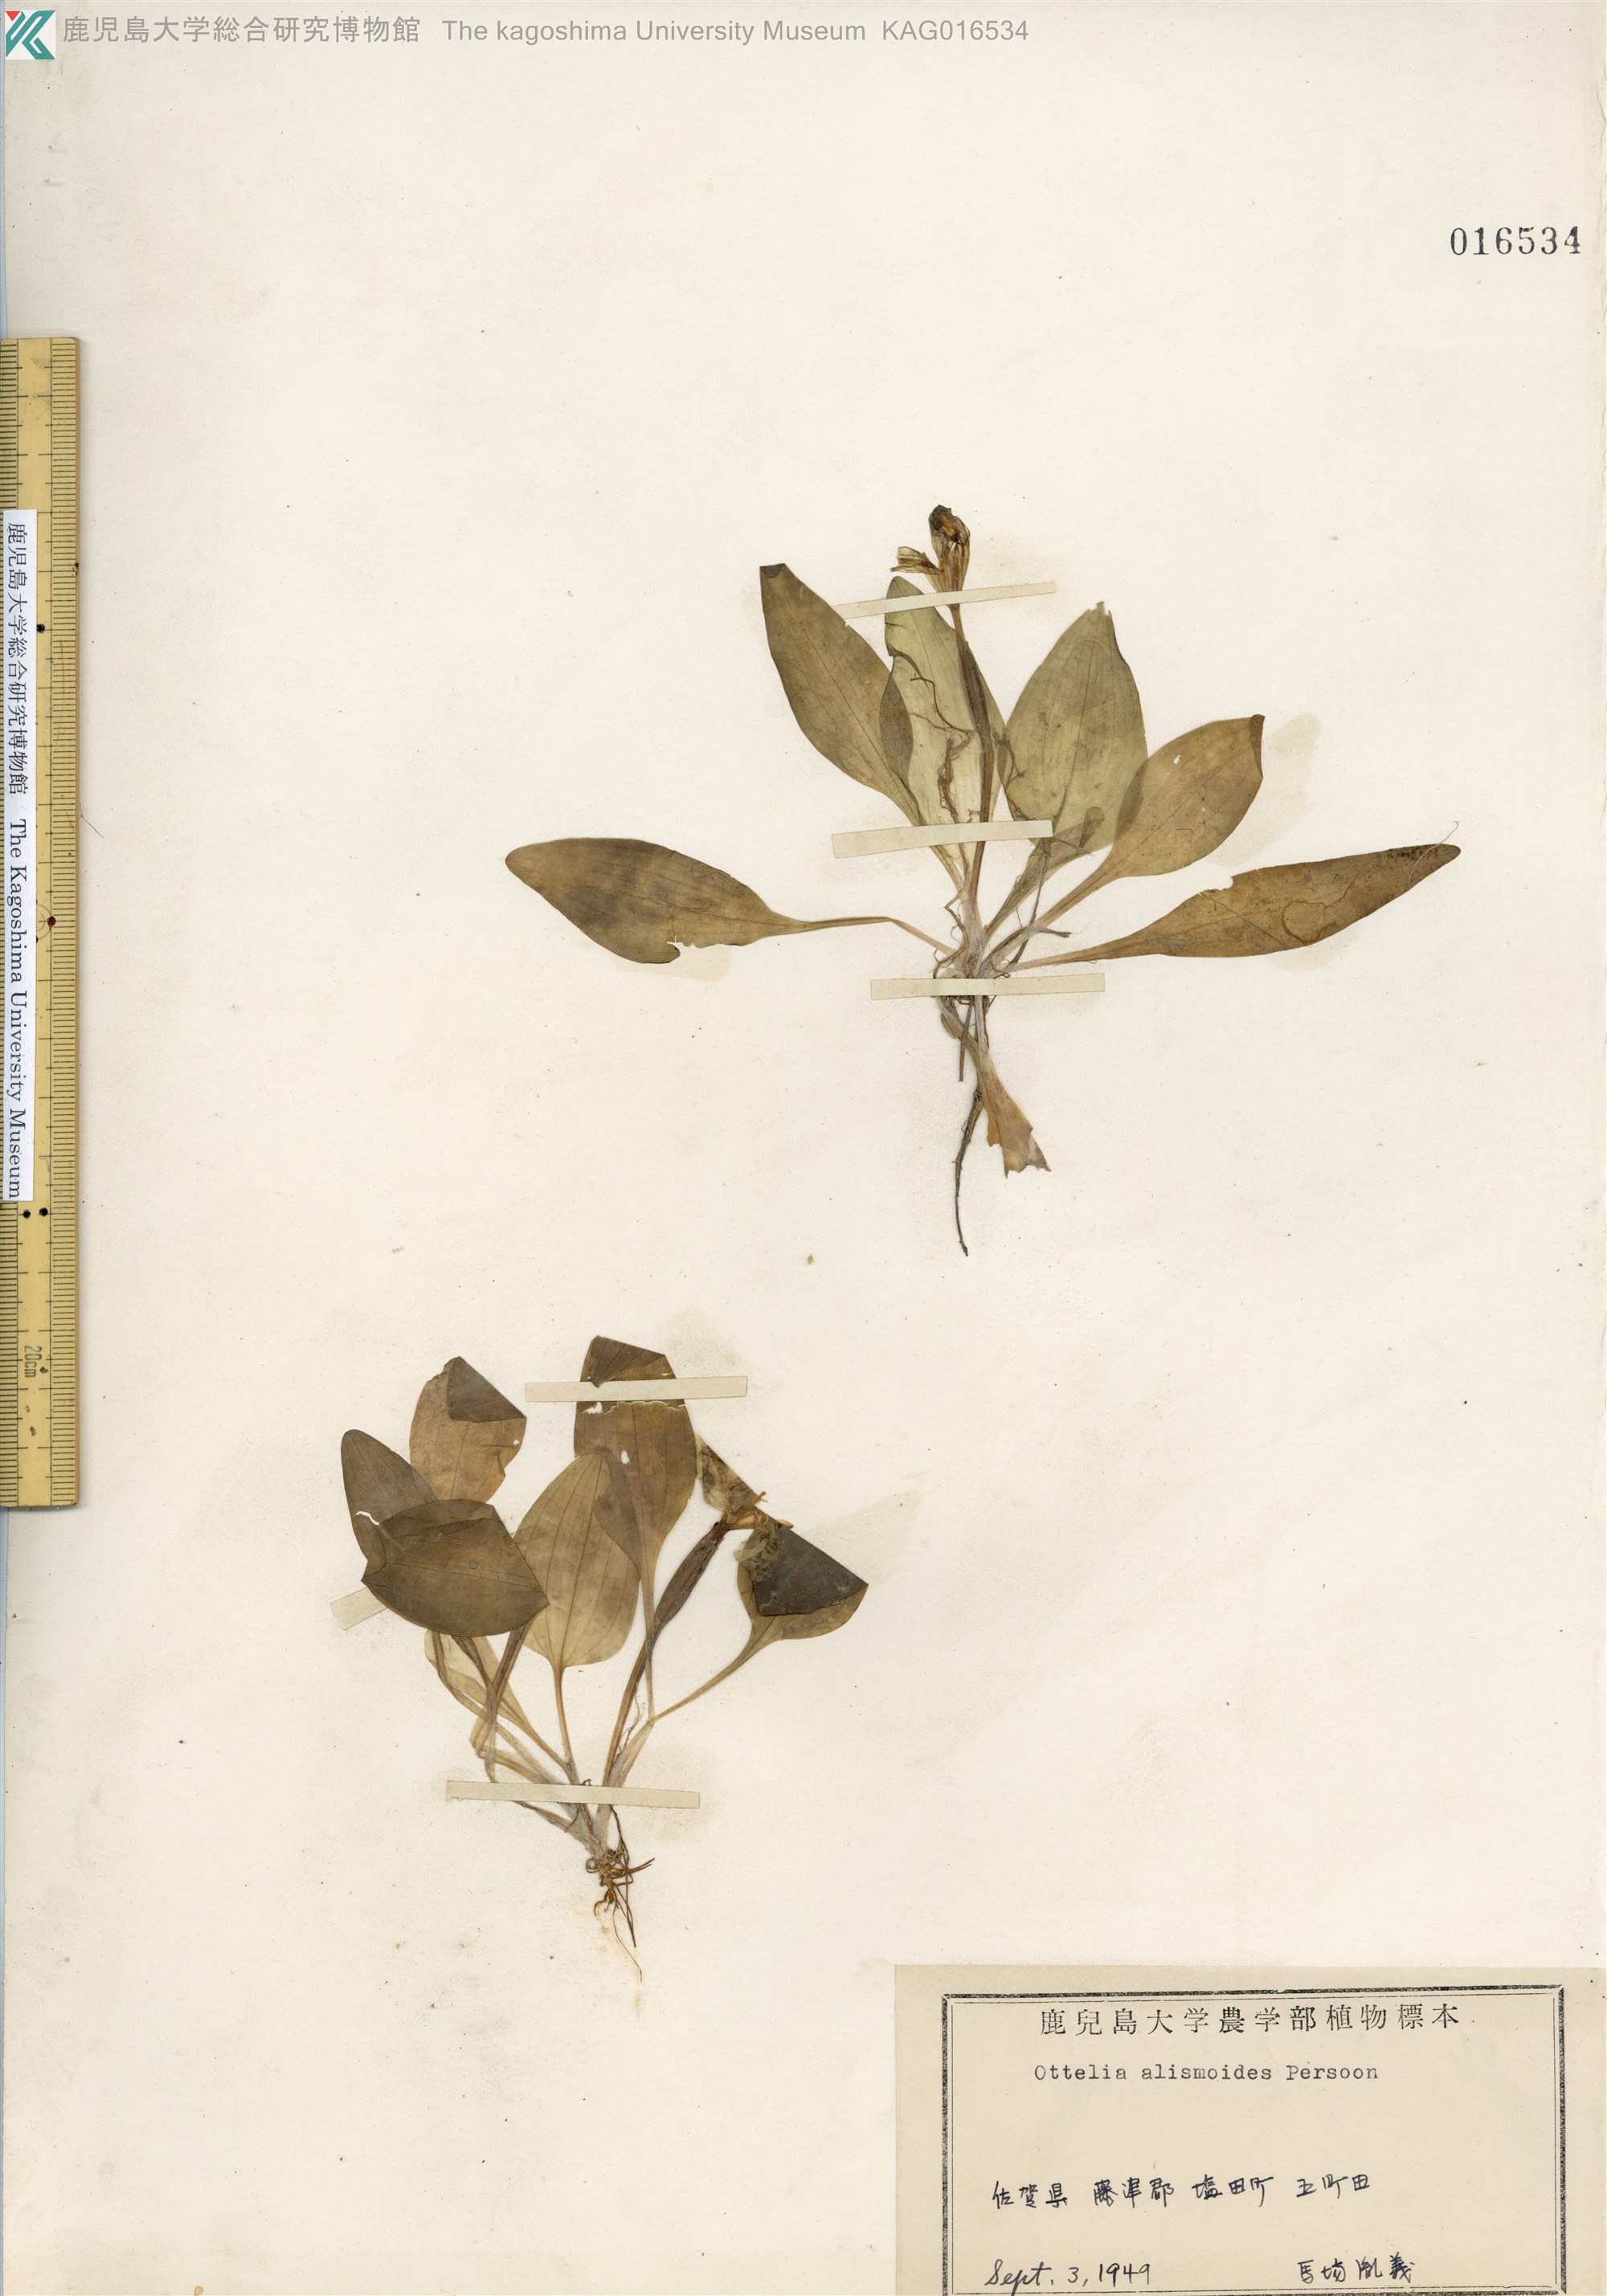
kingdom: Plantae
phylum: Tracheophyta
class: Liliopsida
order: Alismatales
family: Hydrocharitaceae
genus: Ottelia
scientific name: Ottelia alismoides
